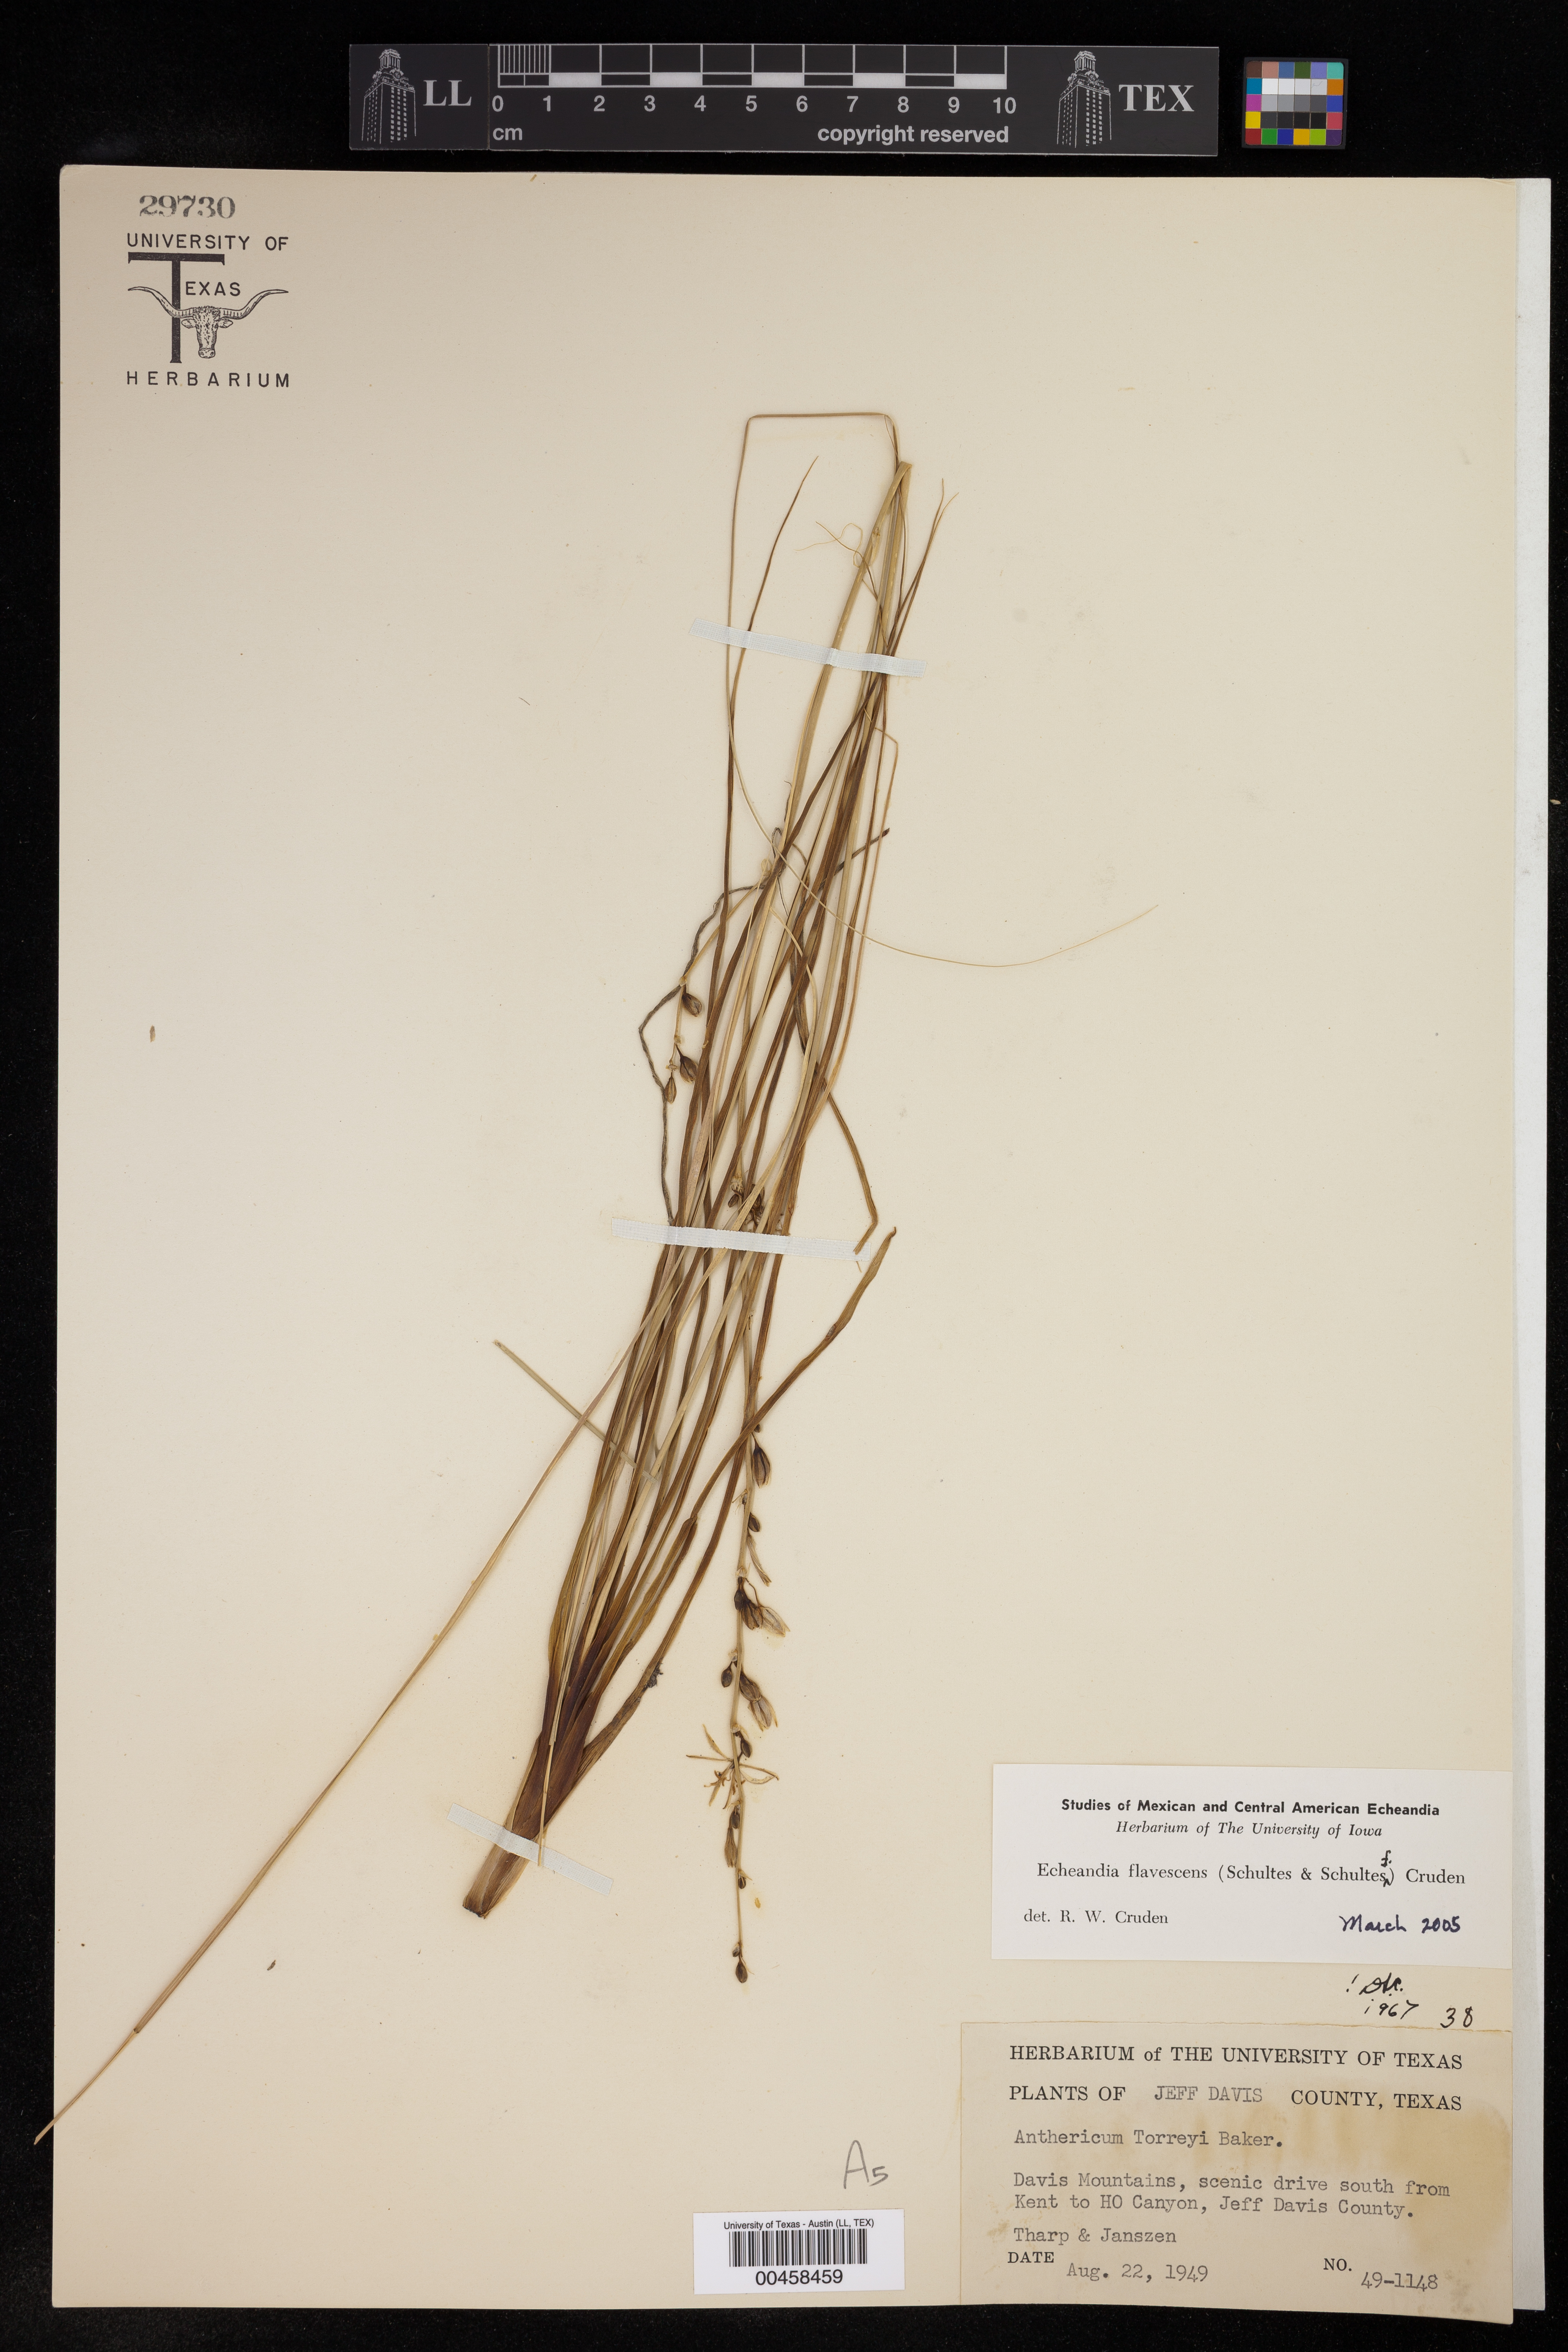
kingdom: Plantae
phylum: Tracheophyta
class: Liliopsida
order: Asparagales
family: Asparagaceae
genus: Echeandia
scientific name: Echeandia flavescens
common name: Amberlily
